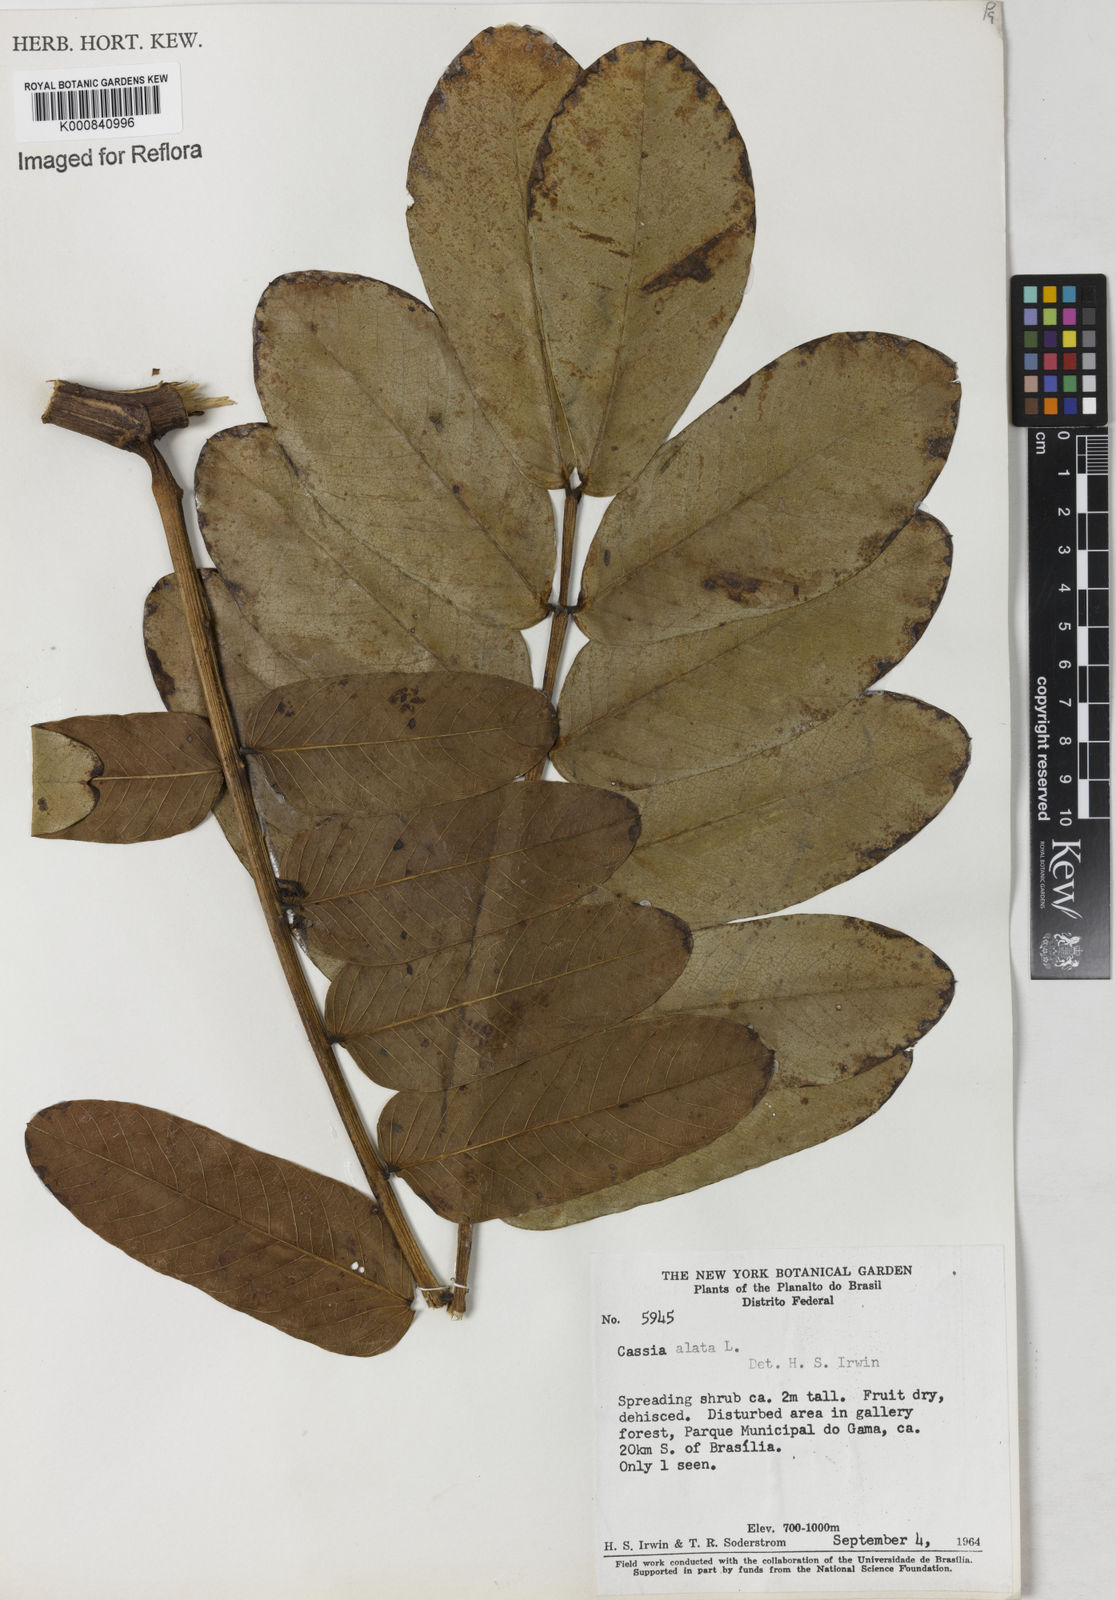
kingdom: Plantae
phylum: Tracheophyta
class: Magnoliopsida
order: Fabales
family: Fabaceae
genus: Genista
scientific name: Genista cupanii
